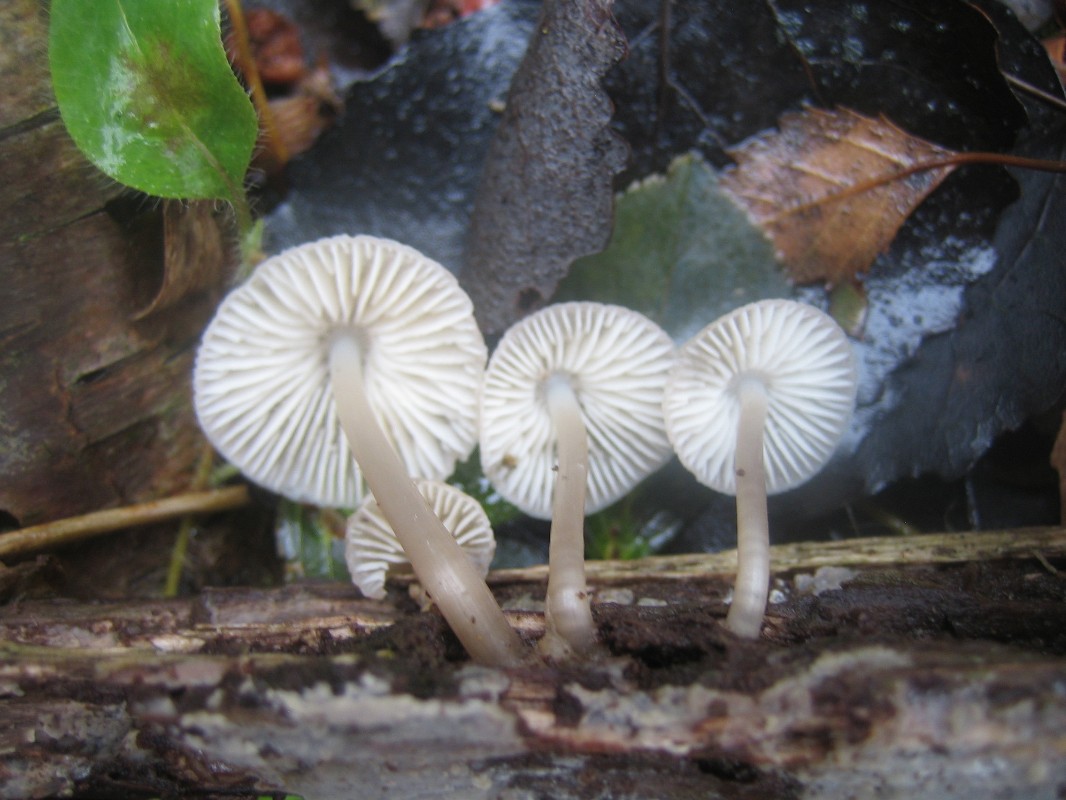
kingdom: Fungi
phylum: Basidiomycota
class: Agaricomycetes
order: Agaricales
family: Mycenaceae
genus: Mycena
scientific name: Mycena galericulata
